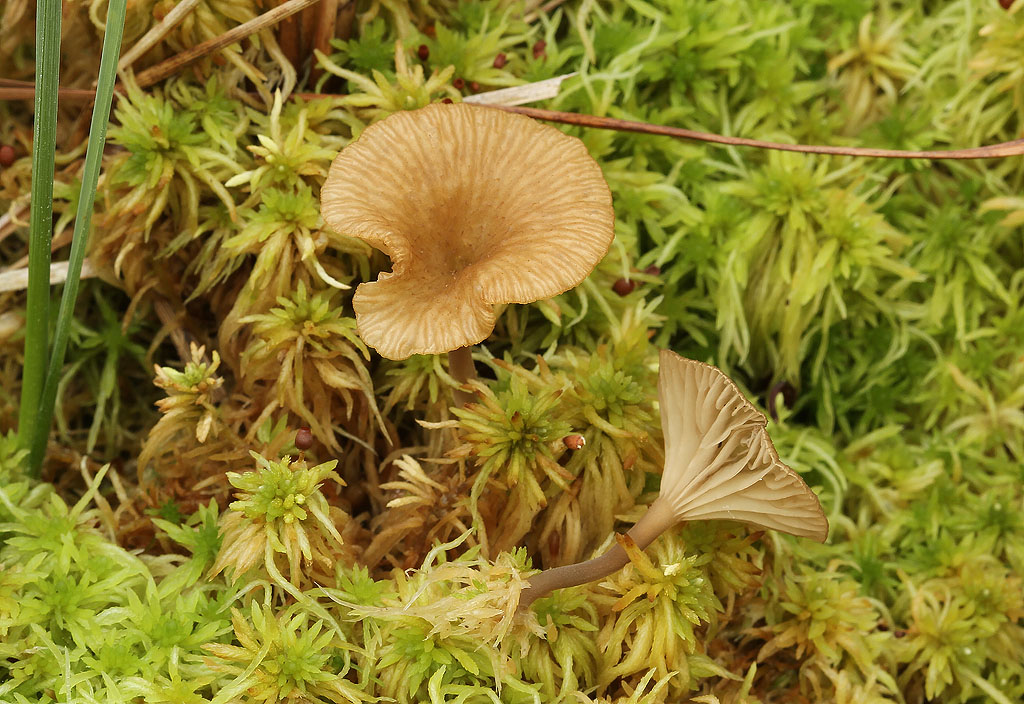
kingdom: Fungi
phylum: Basidiomycota
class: Agaricomycetes
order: Agaricales
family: Hygrophoraceae
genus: Arrhenia
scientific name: Arrhenia gerardiana
